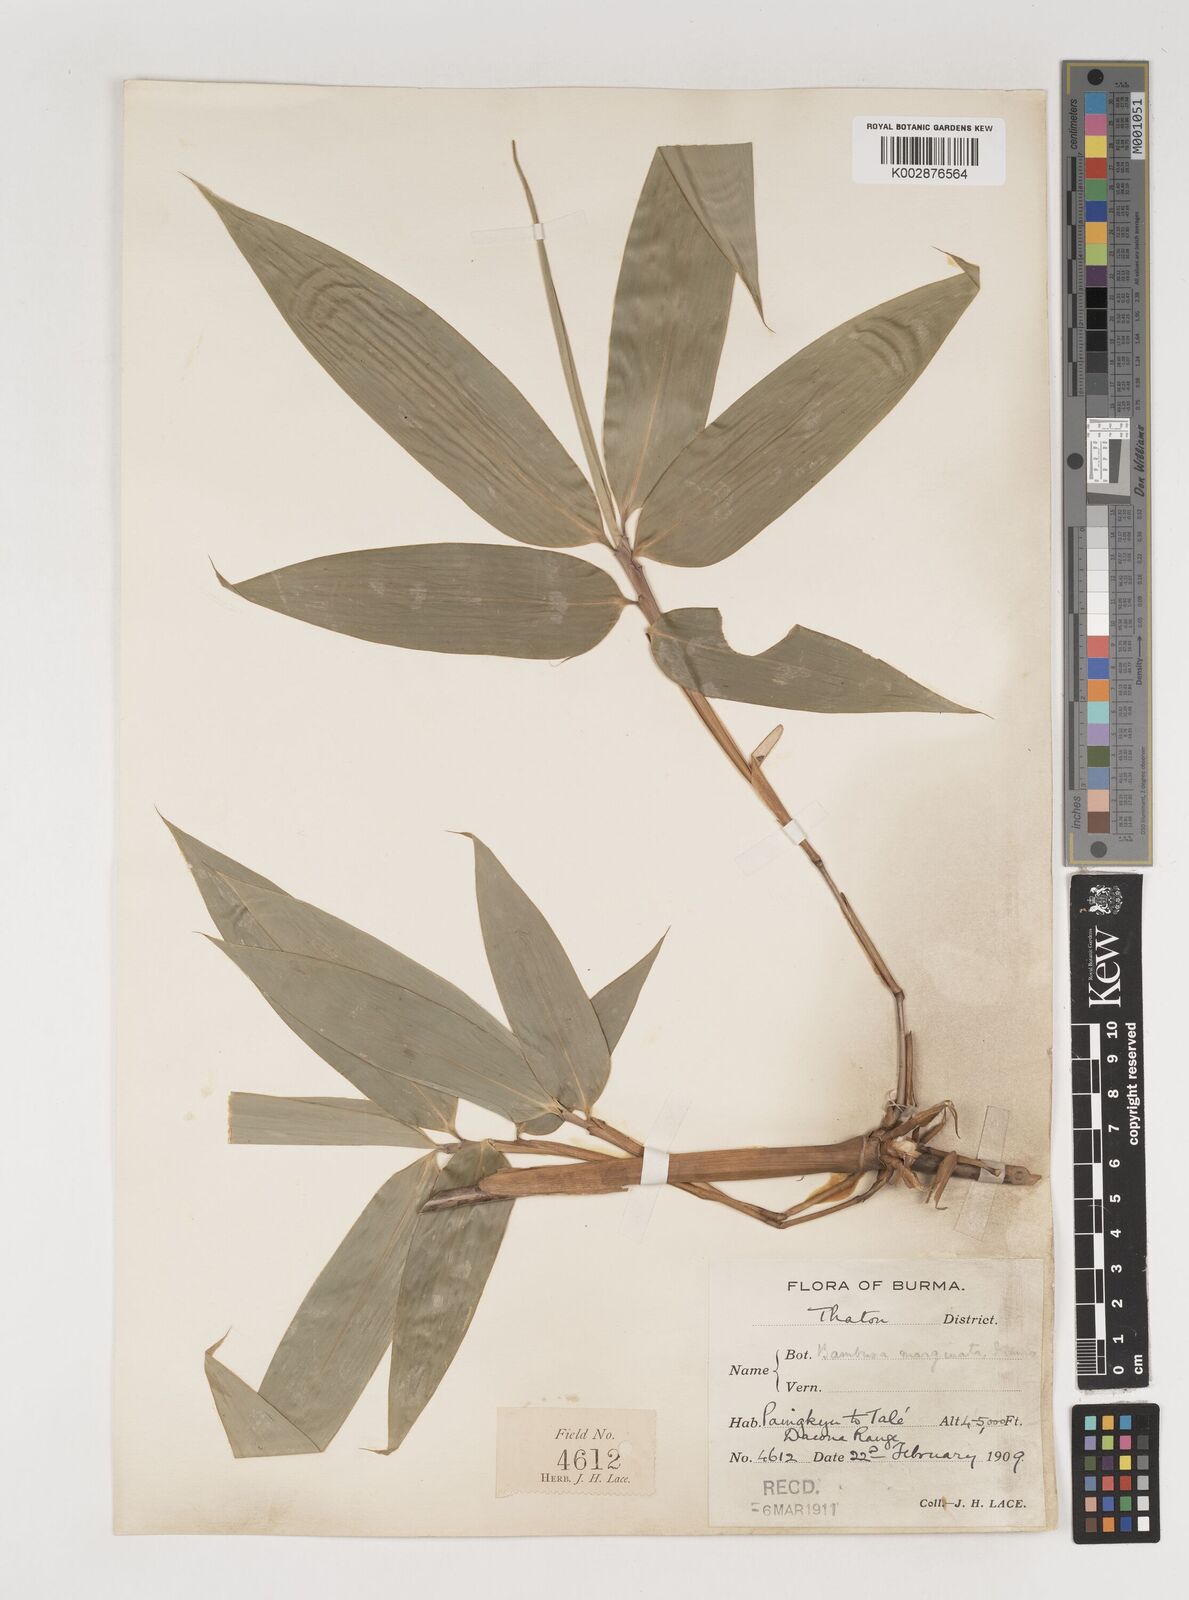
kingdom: Plantae
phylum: Tracheophyta
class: Liliopsida
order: Poales
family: Poaceae
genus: Bambusa
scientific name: Bambusa marginata
